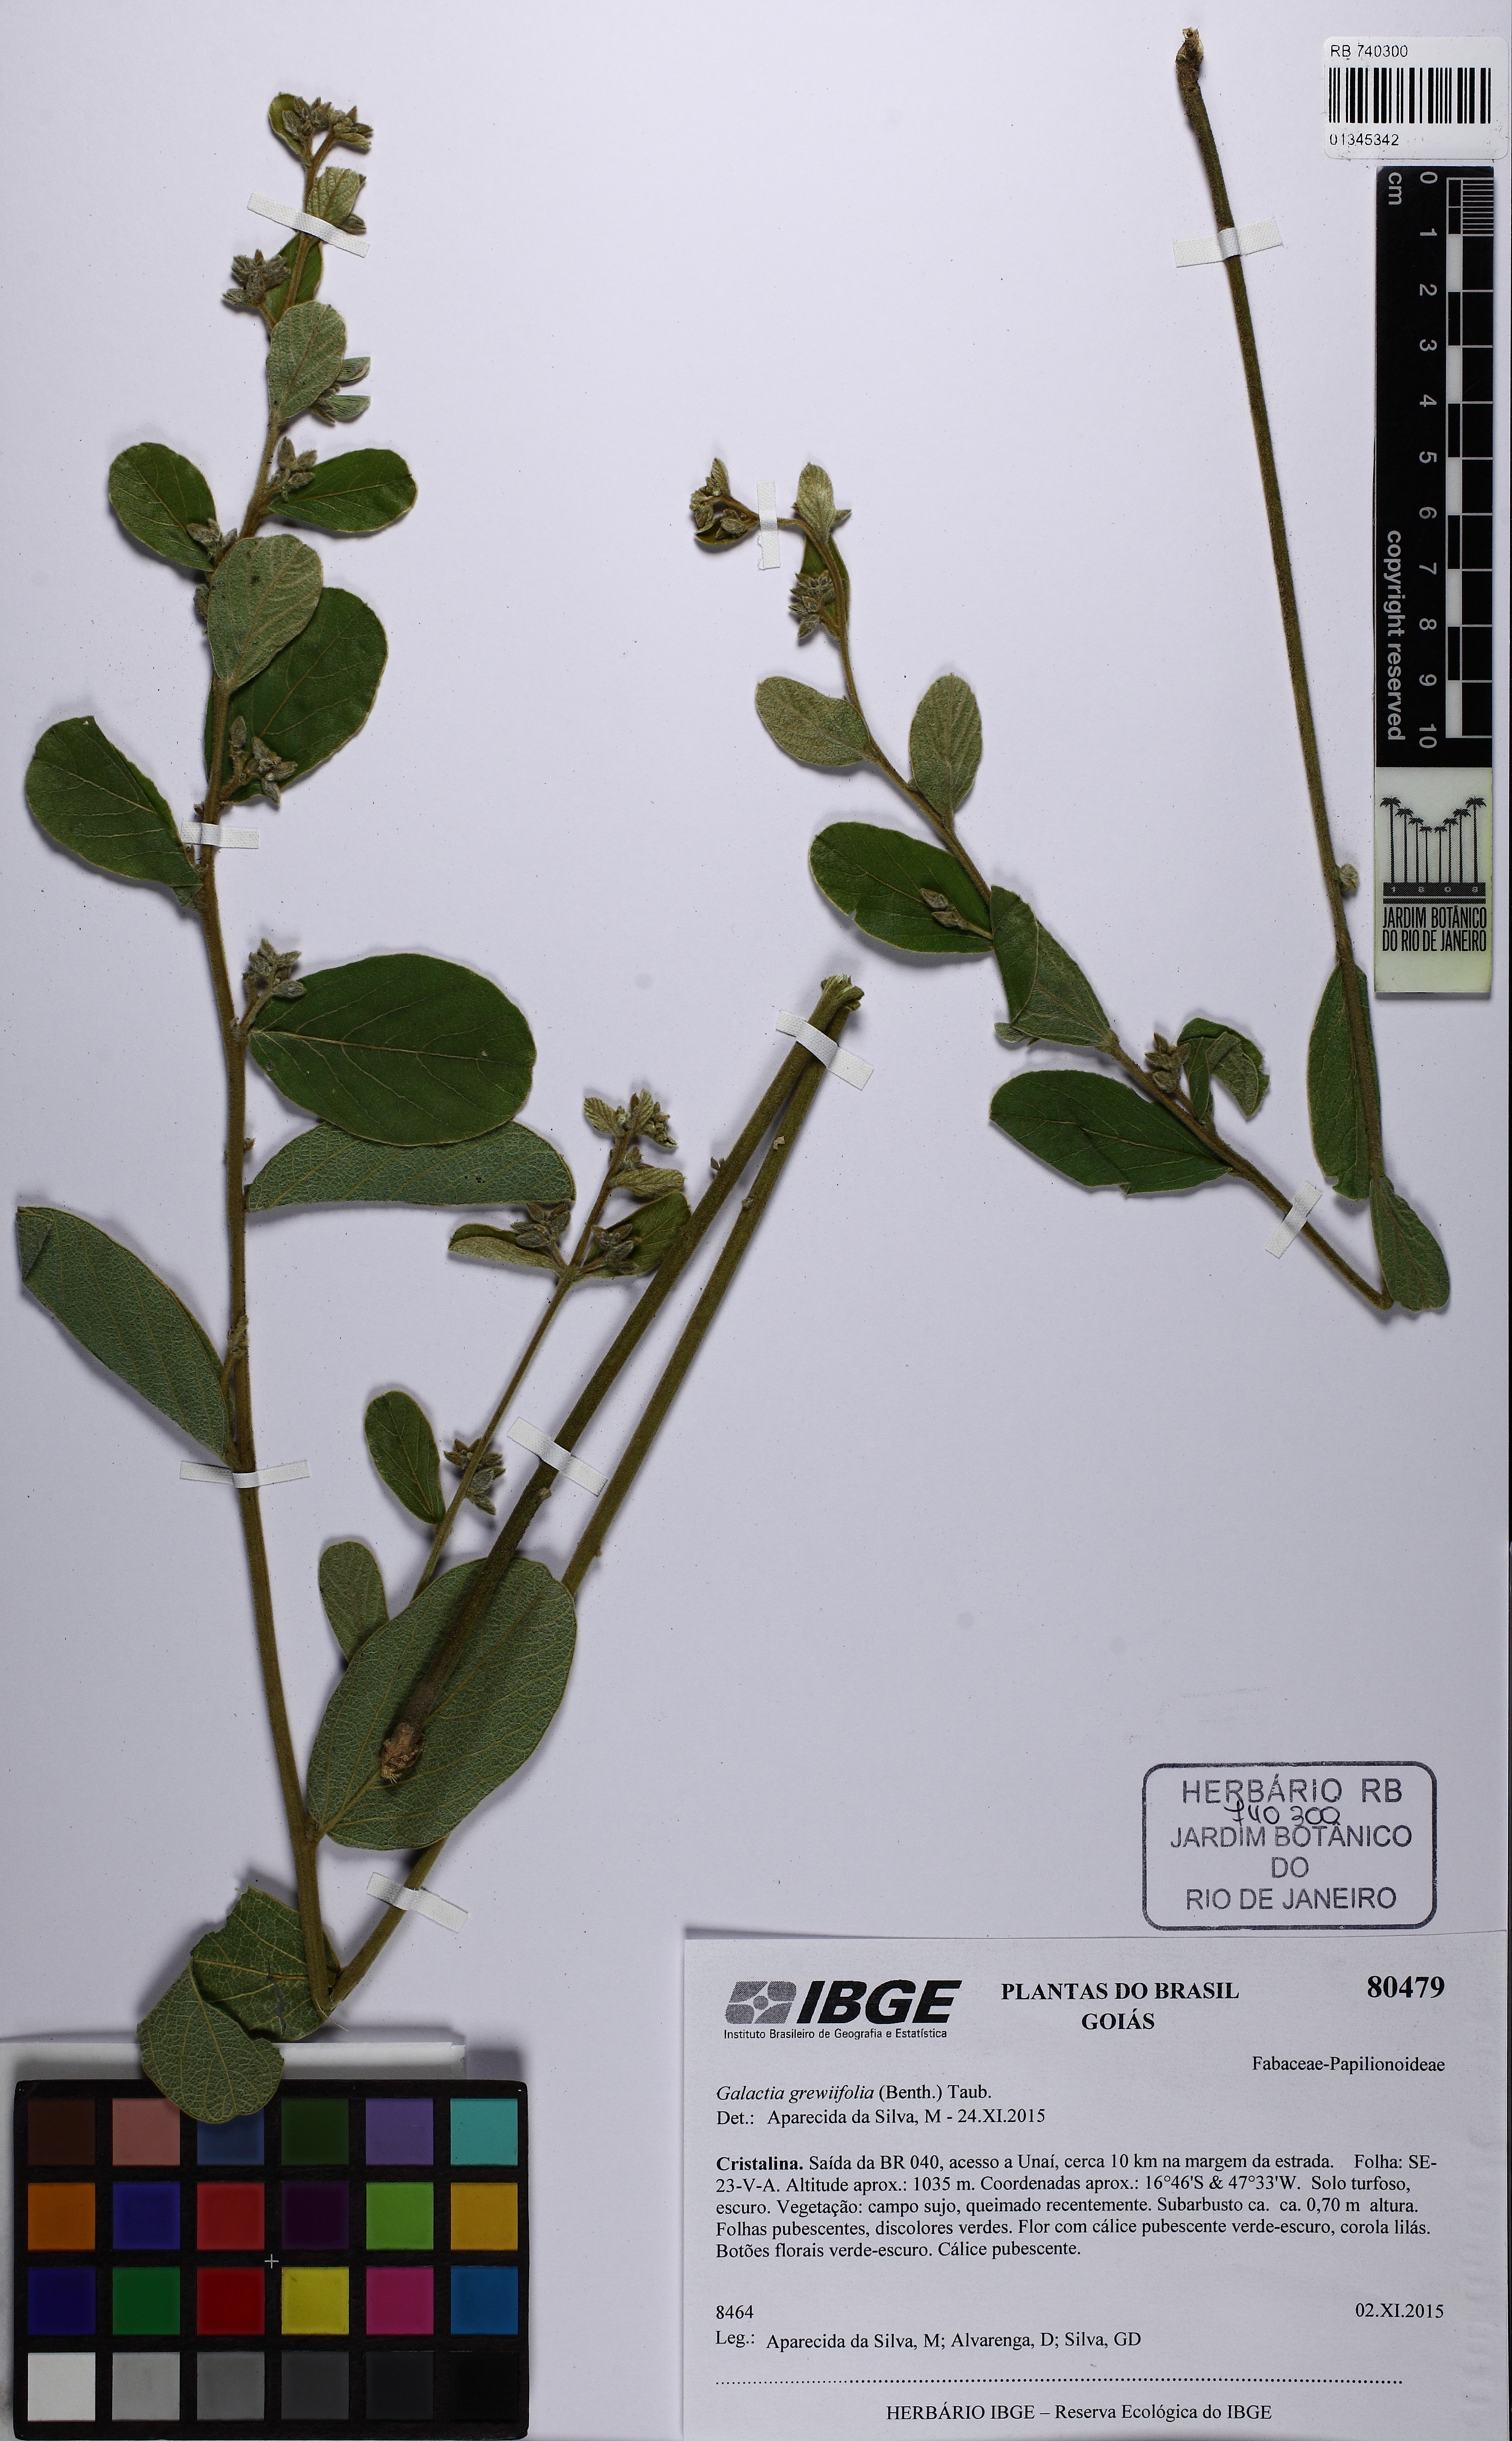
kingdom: Plantae
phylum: Tracheophyta
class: Magnoliopsida
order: Fabales
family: Fabaceae
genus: Cerradicola
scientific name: Cerradicola grewiifolia
